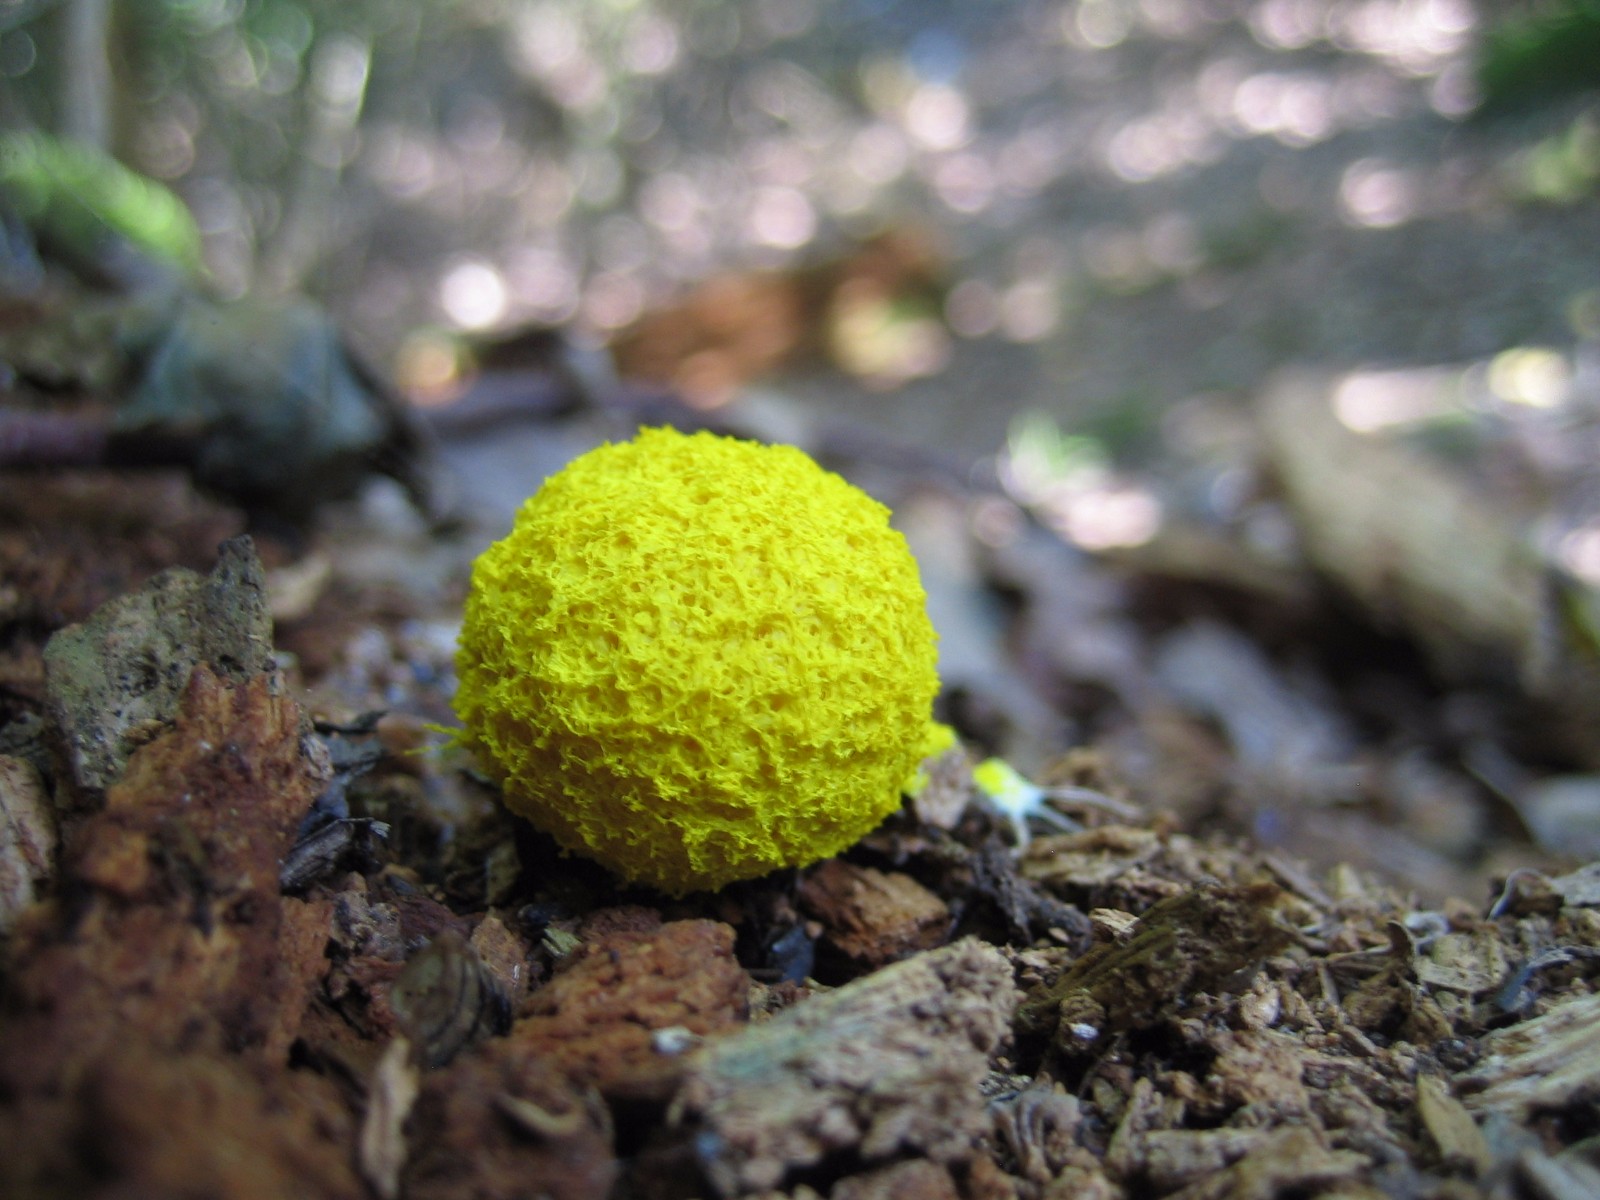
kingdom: Protozoa
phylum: Mycetozoa
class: Myxomycetes
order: Physarales
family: Physaraceae
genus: Fuligo
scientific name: Fuligo septica
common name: gul troldsmør
